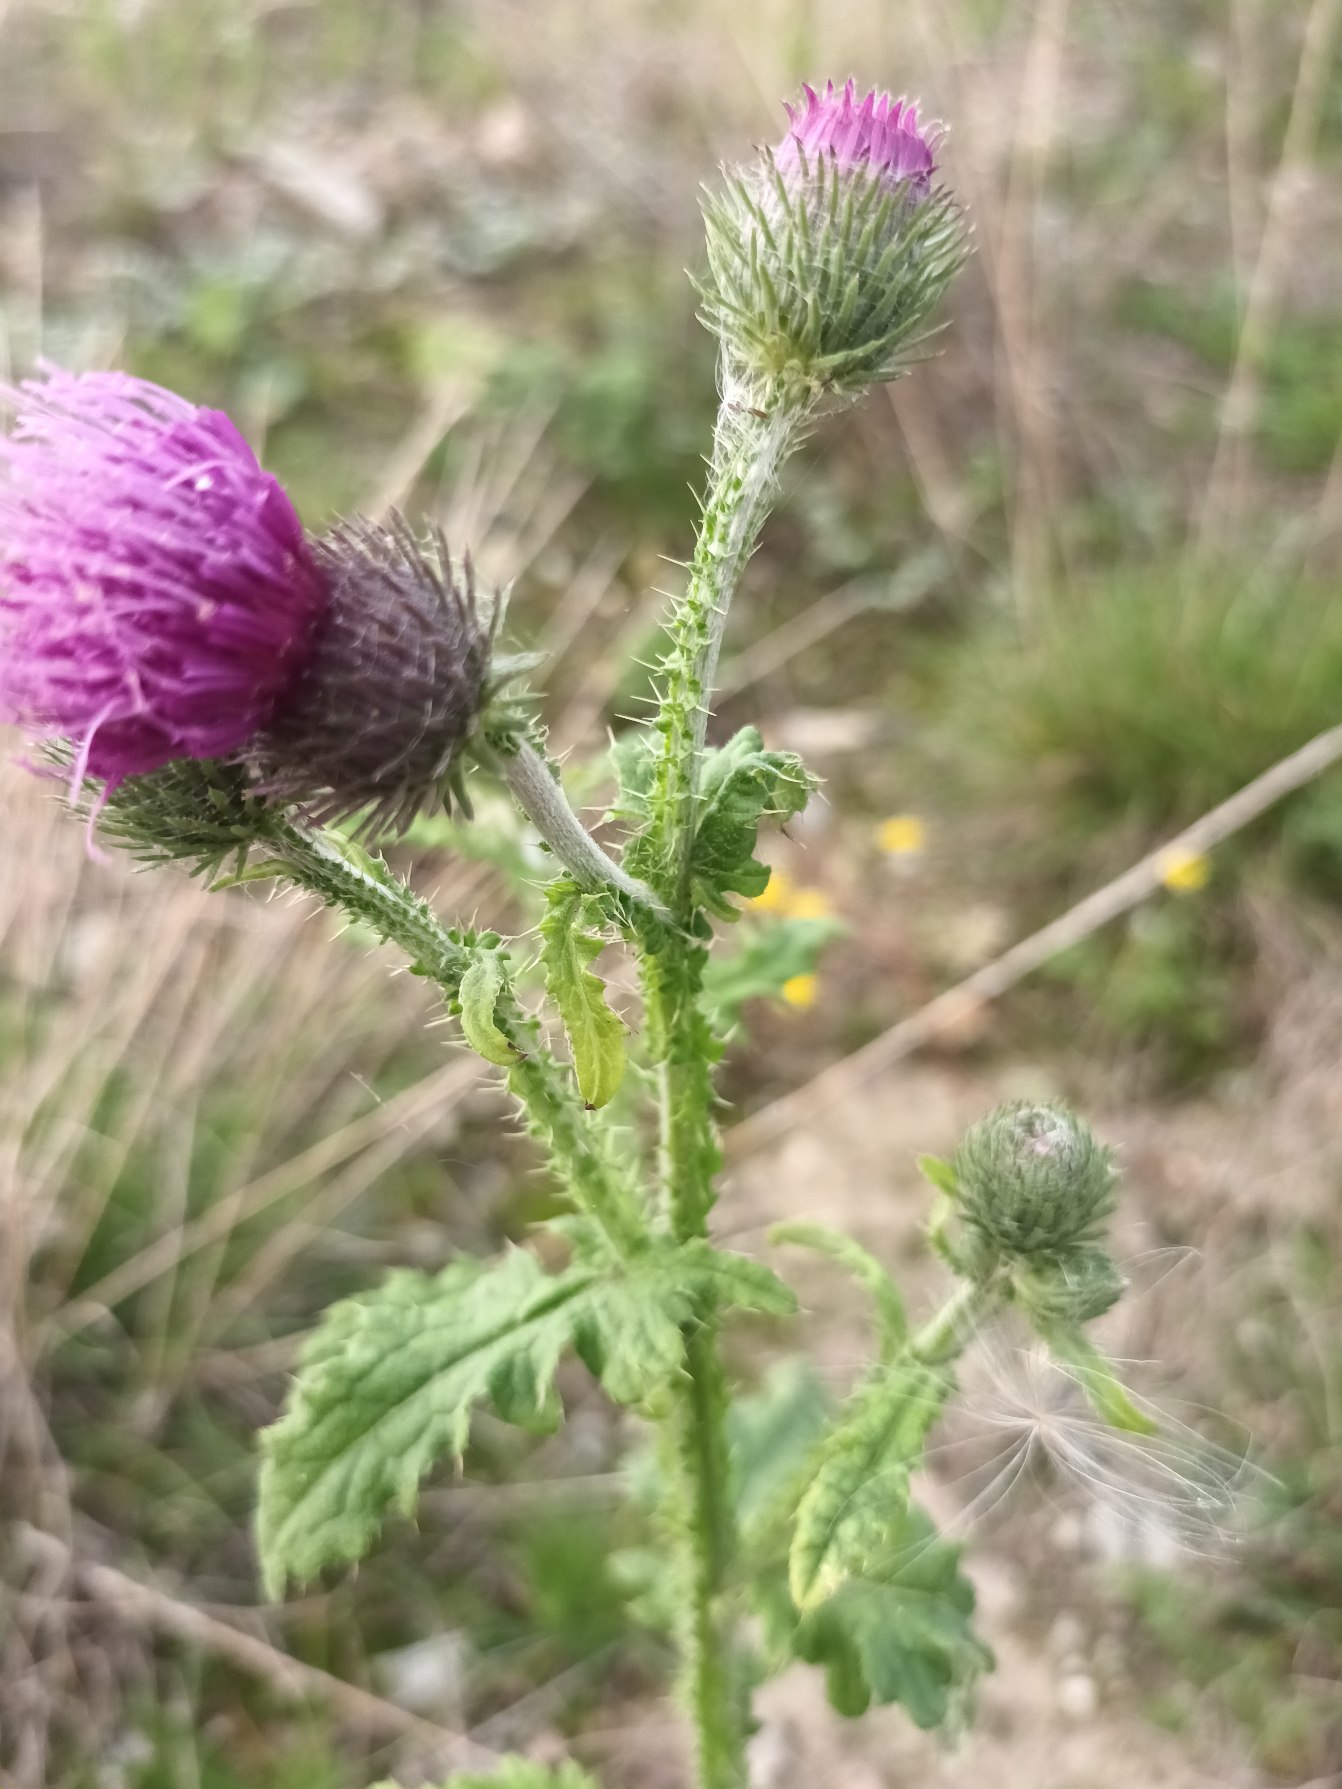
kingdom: Plantae
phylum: Tracheophyta
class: Magnoliopsida
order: Asterales
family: Asteraceae
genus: Carduus
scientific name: Carduus crispus
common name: Kruset tidsel
